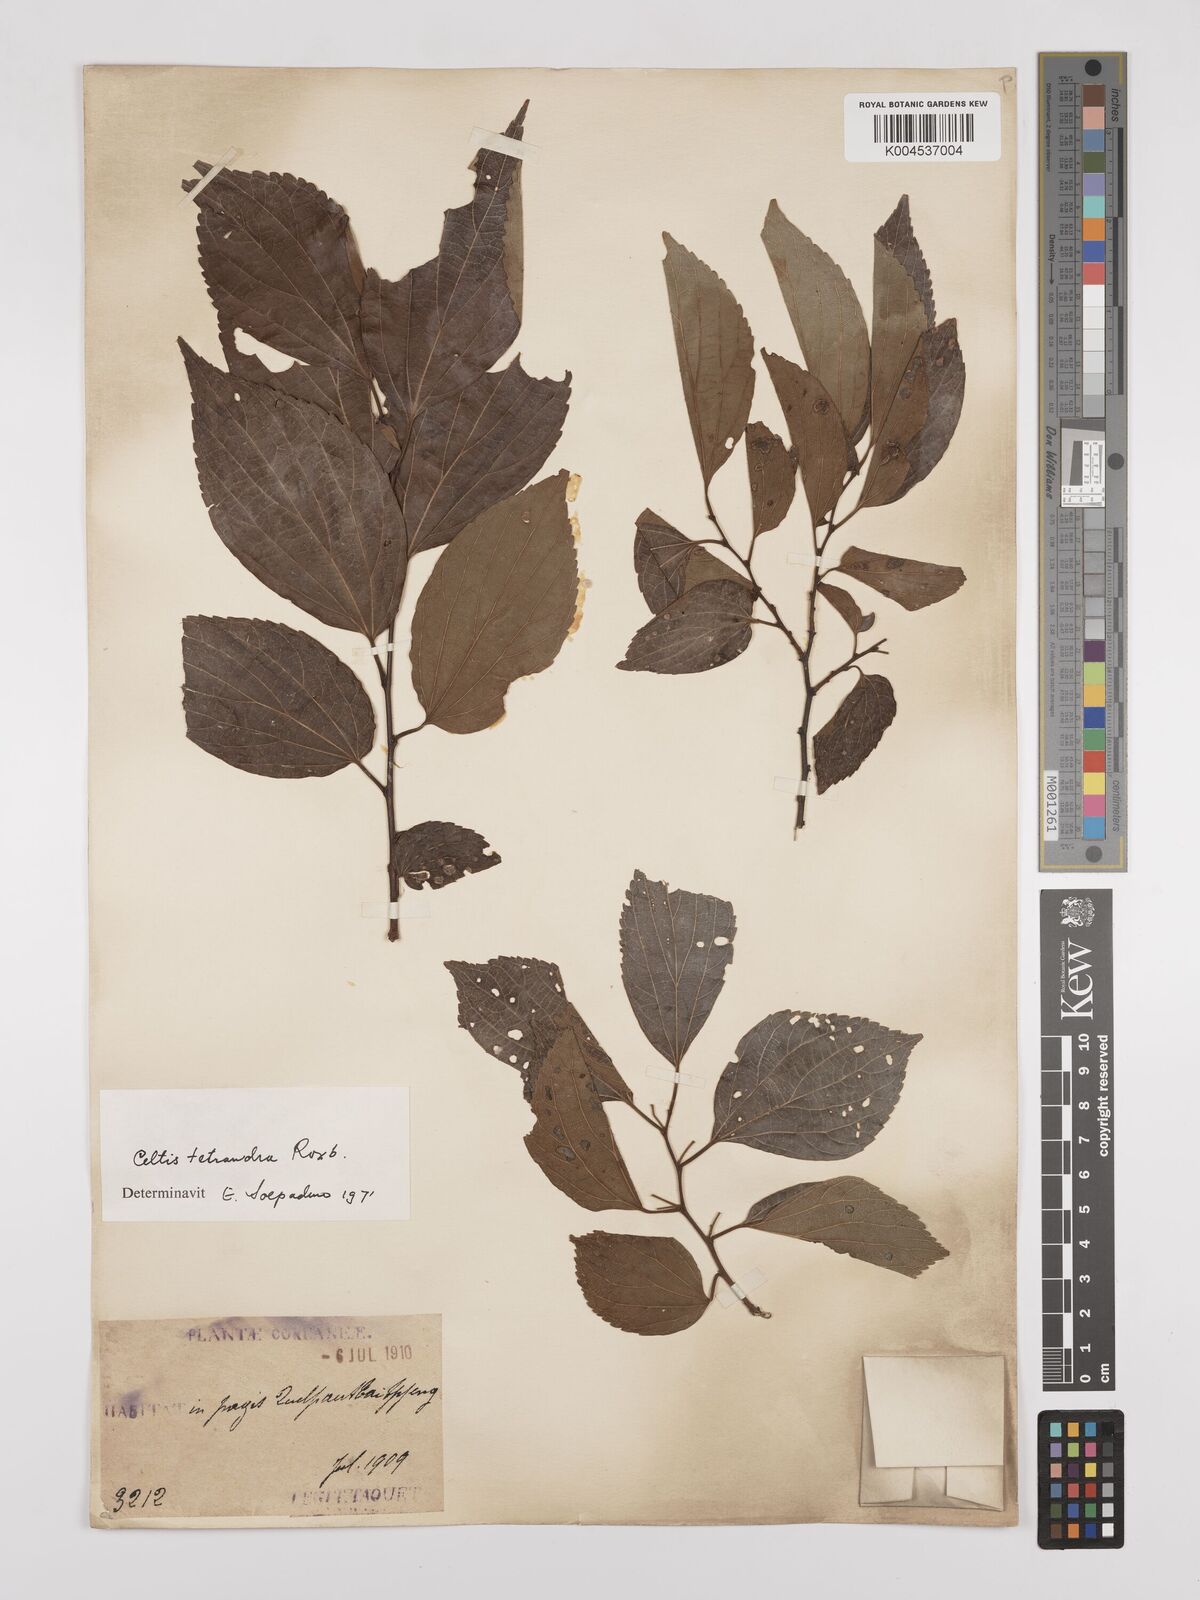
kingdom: Plantae
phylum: Tracheophyta
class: Magnoliopsida
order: Rosales
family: Cannabaceae
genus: Celtis
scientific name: Celtis tetrandra
